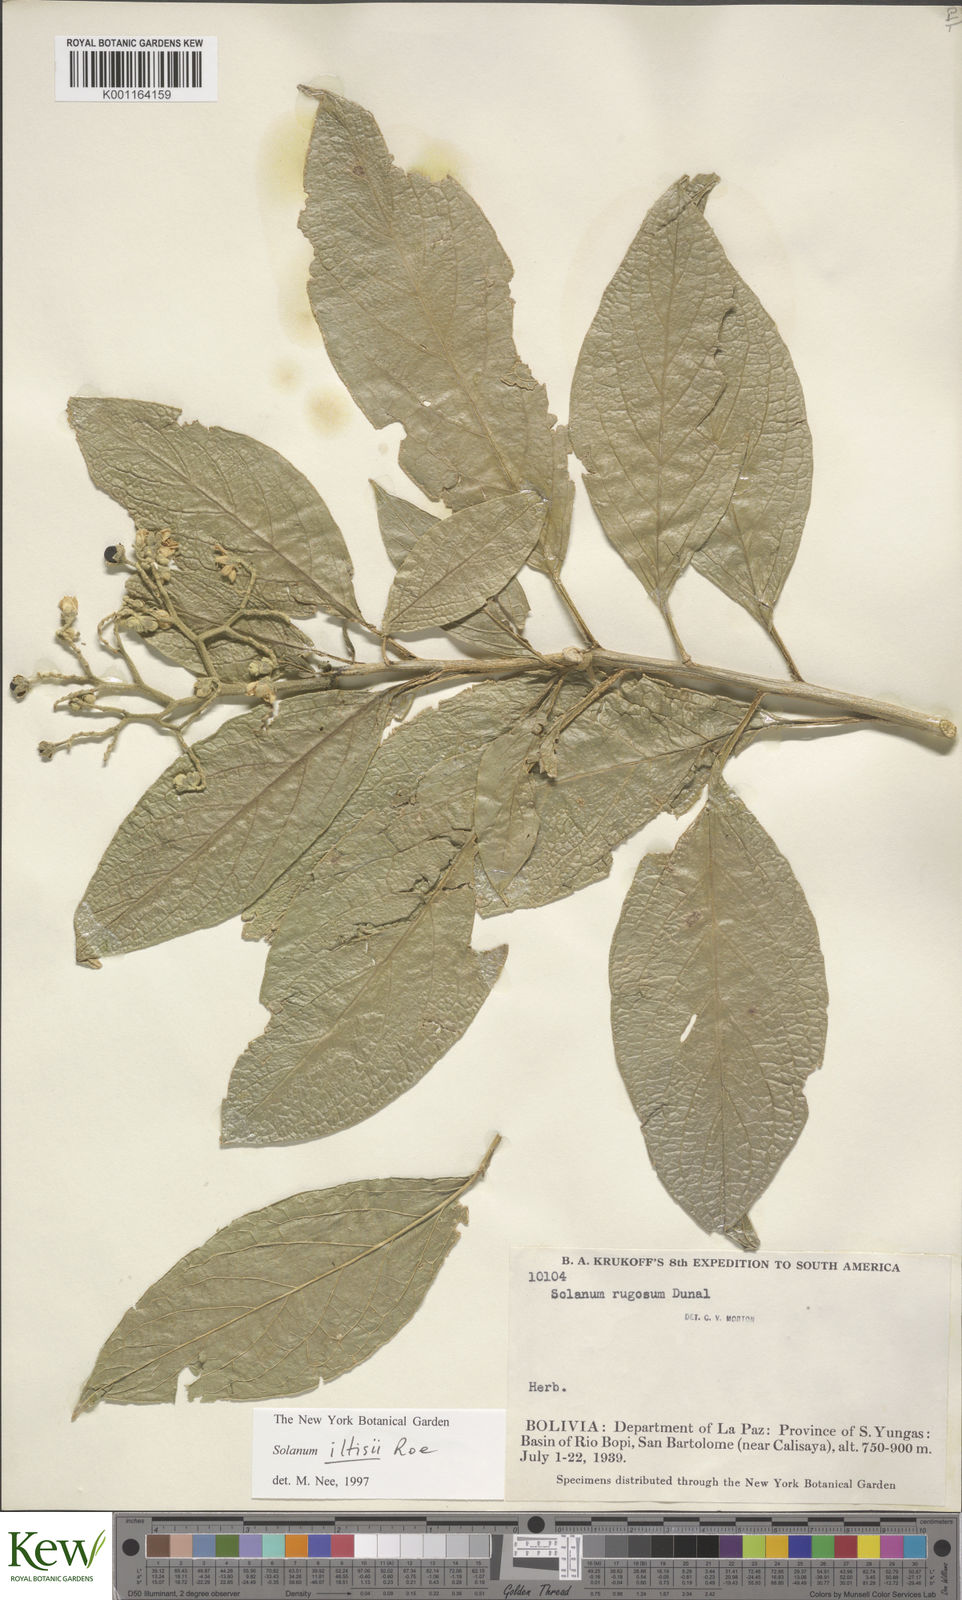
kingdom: Plantae
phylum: Tracheophyta
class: Magnoliopsida
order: Solanales
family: Solanaceae
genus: Solanum
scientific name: Solanum iltisii
